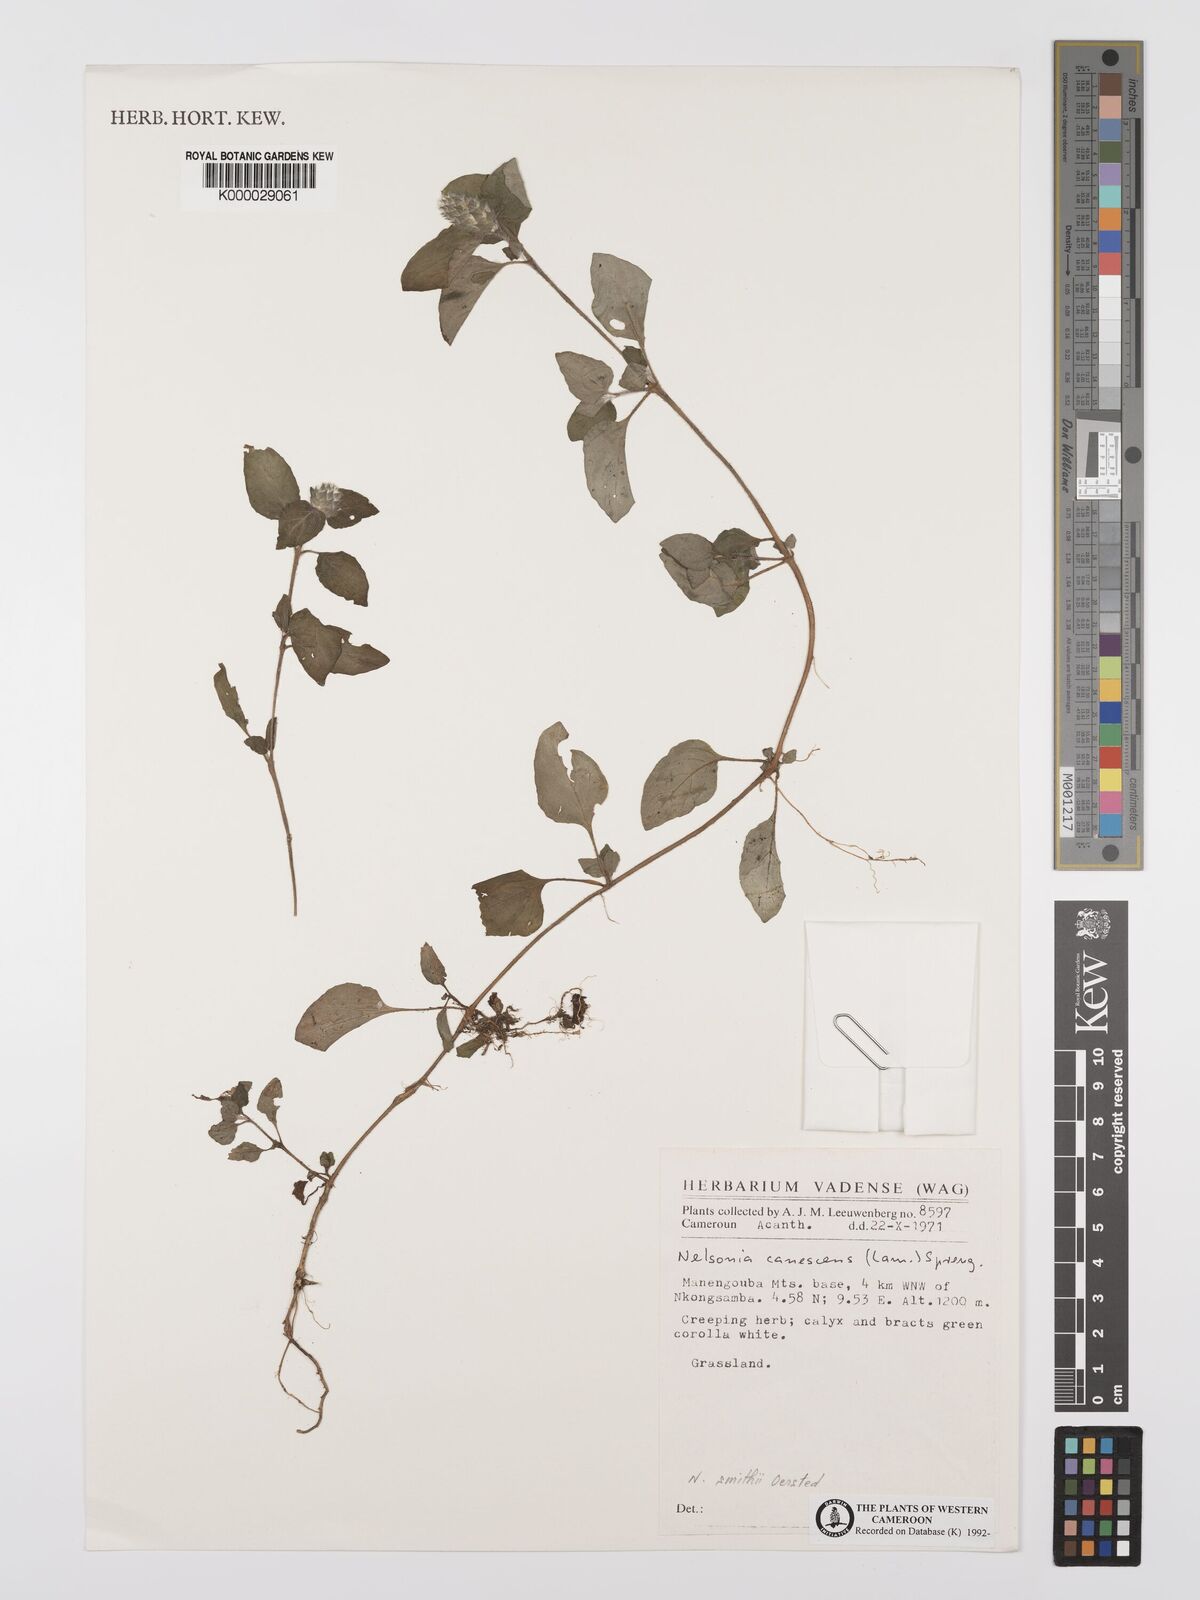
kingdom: Plantae
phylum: Tracheophyta
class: Magnoliopsida
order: Lamiales
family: Acanthaceae
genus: Nelsonia
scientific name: Nelsonia smithii
